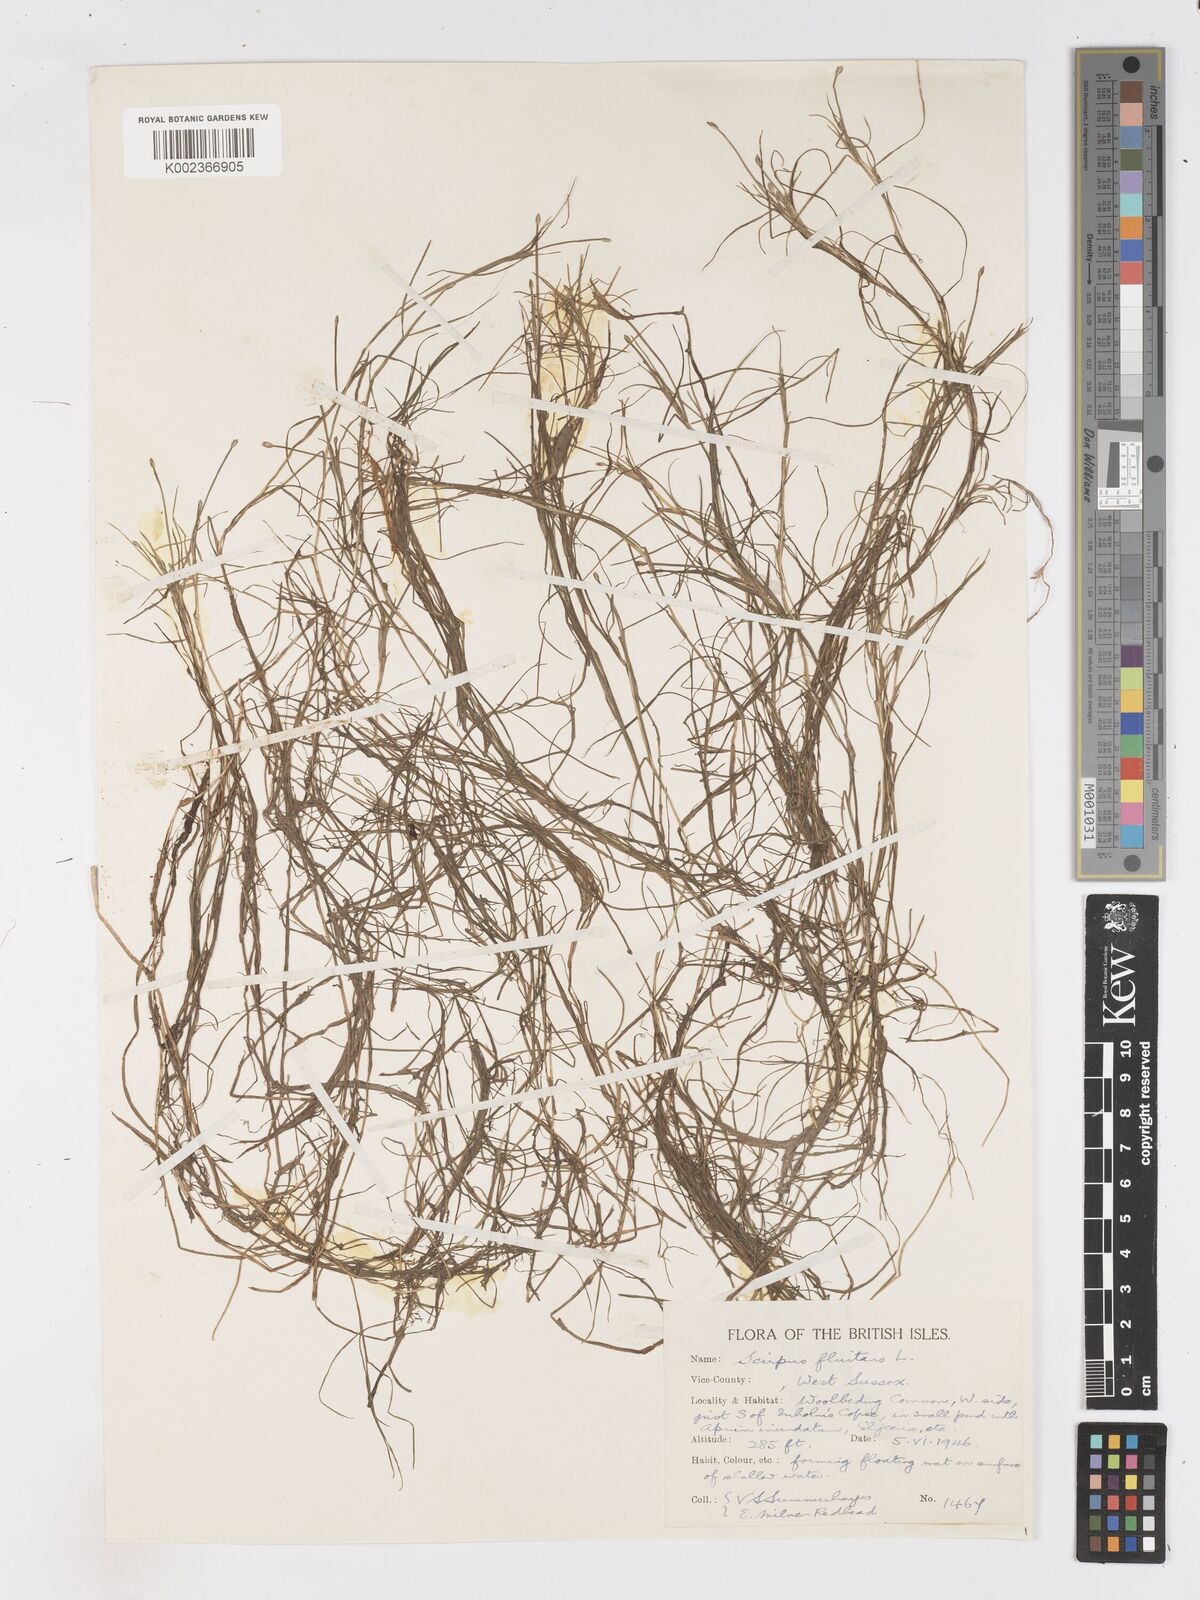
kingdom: Plantae
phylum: Tracheophyta
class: Liliopsida
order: Poales
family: Cyperaceae
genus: Isolepis
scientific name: Isolepis fluitans
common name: Floating club-rush
